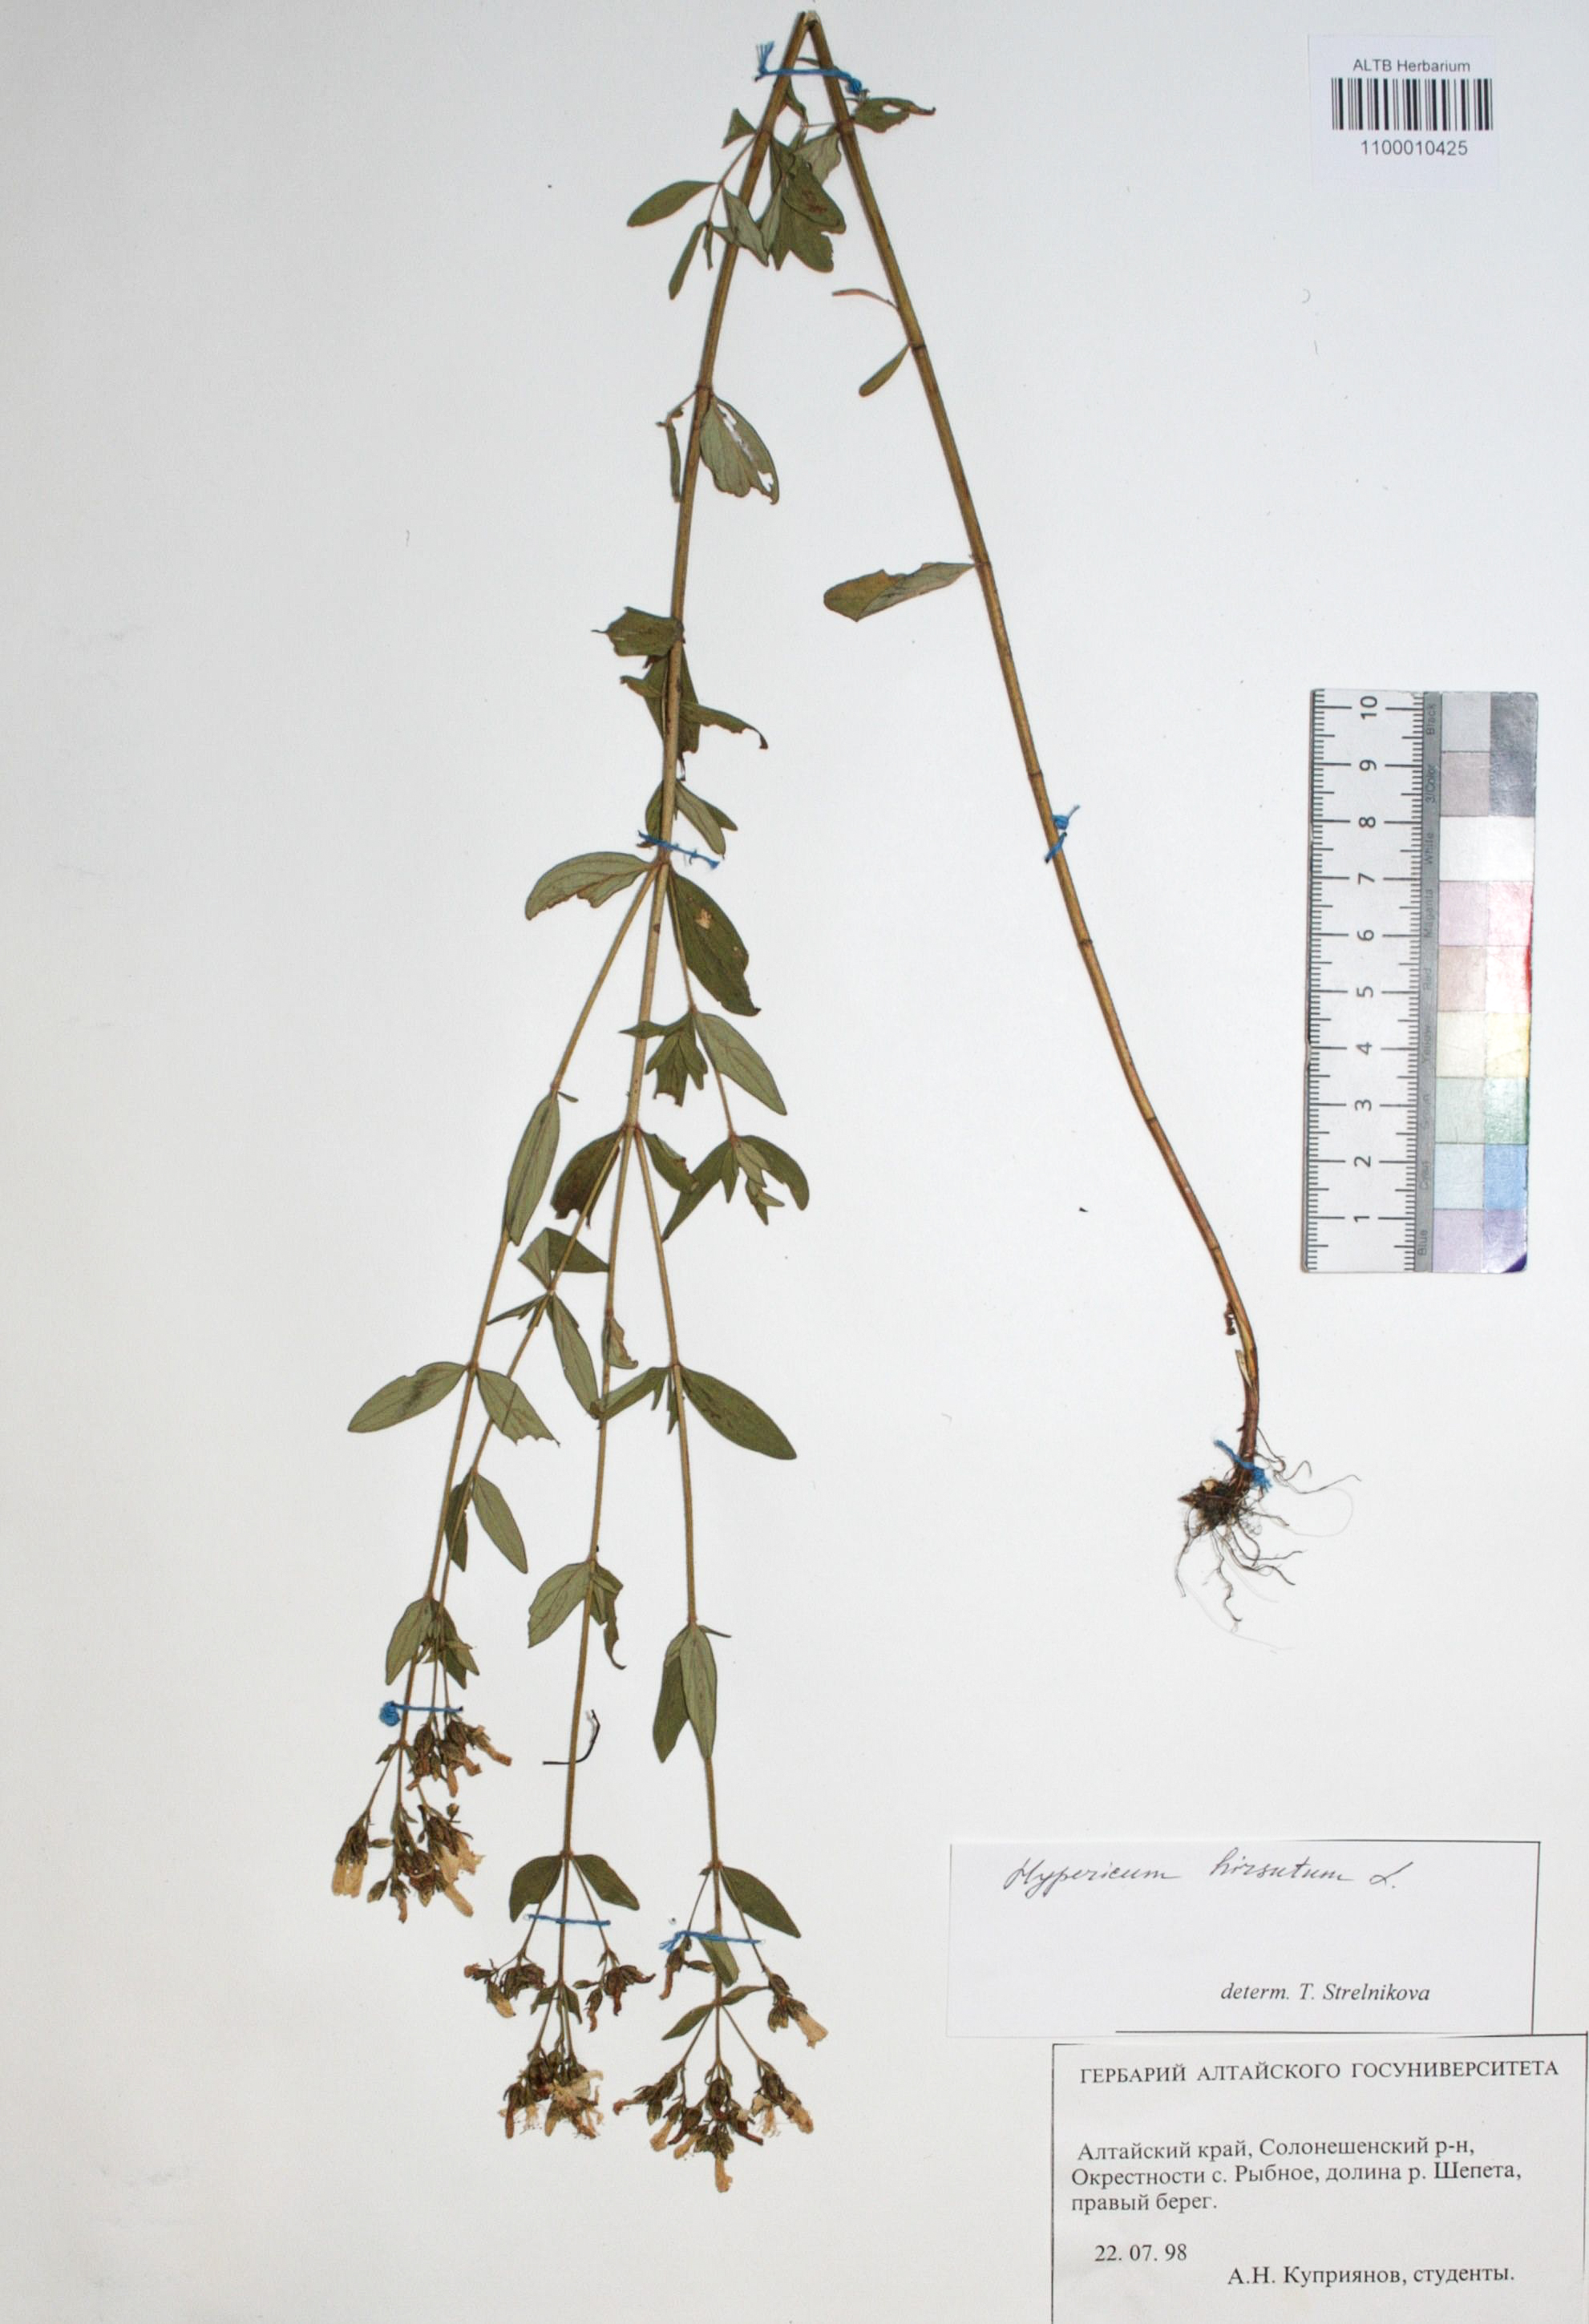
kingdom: Plantae
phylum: Tracheophyta
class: Magnoliopsida
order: Malpighiales
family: Hypericaceae
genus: Hypericum
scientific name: Hypericum hirsutum
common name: Hairy st. john's-wort
